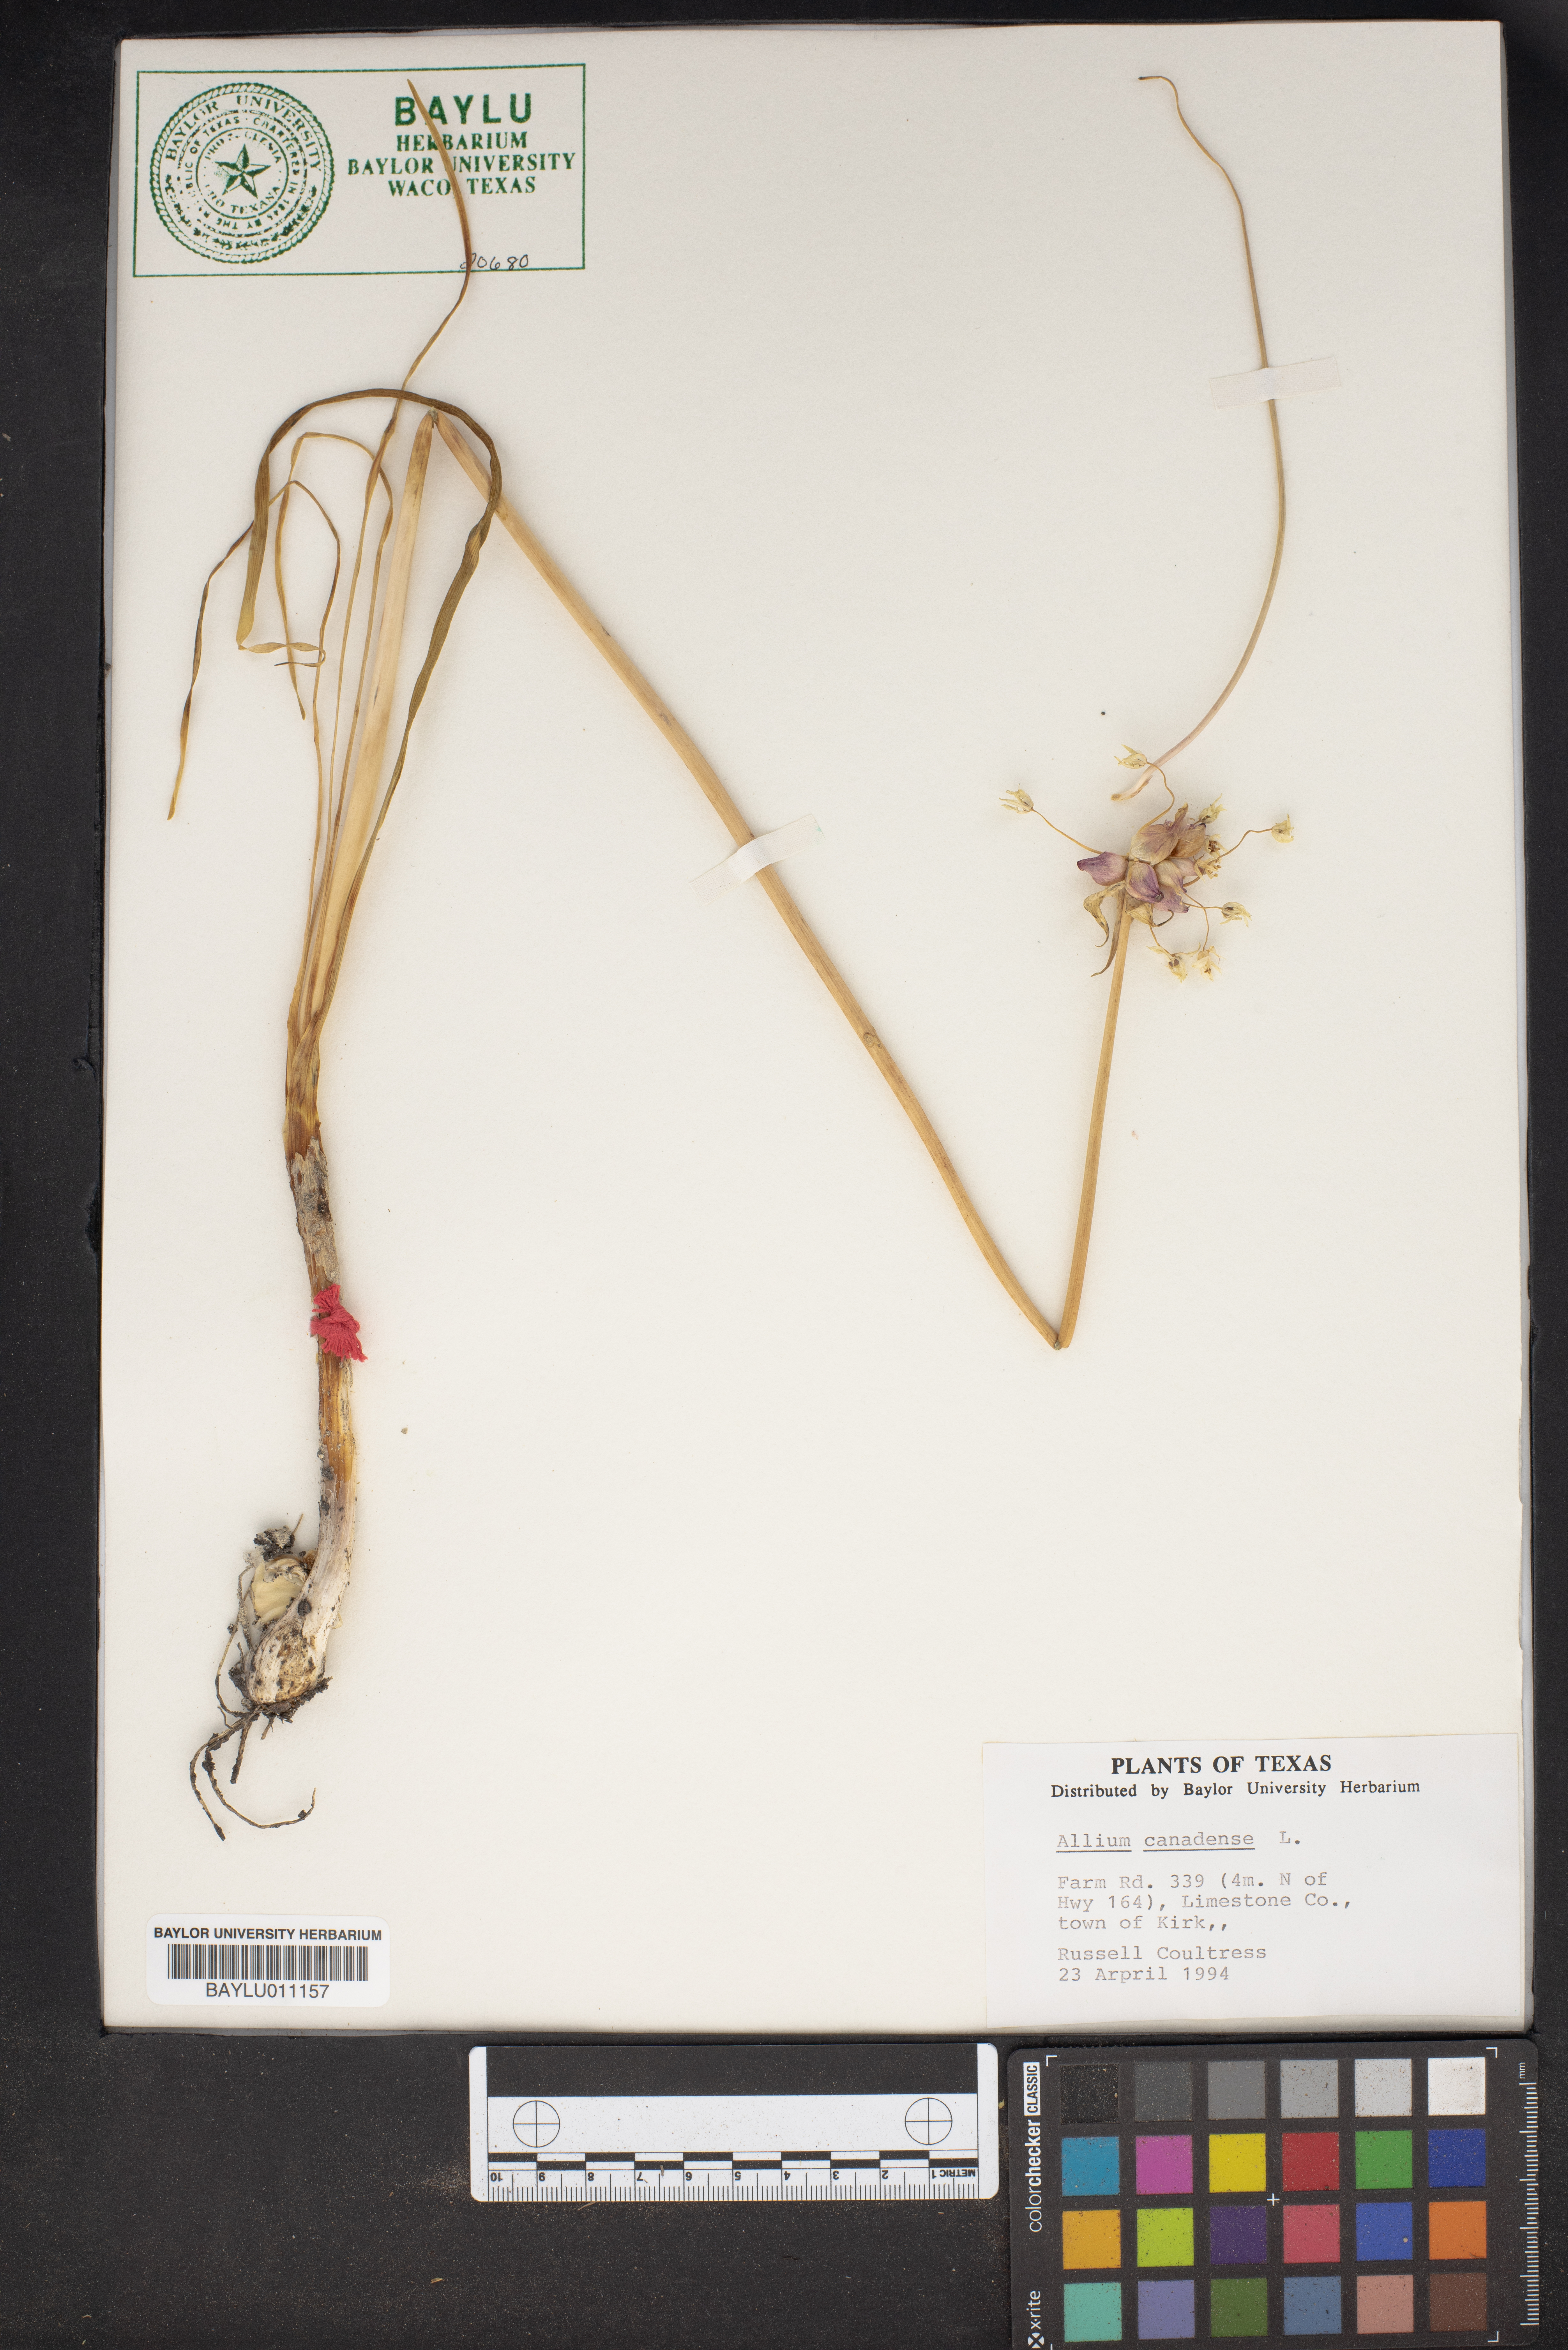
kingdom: Plantae
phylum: Tracheophyta
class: Liliopsida
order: Asparagales
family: Amaryllidaceae
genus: Allium
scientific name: Allium canadense
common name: Meadow garlic
